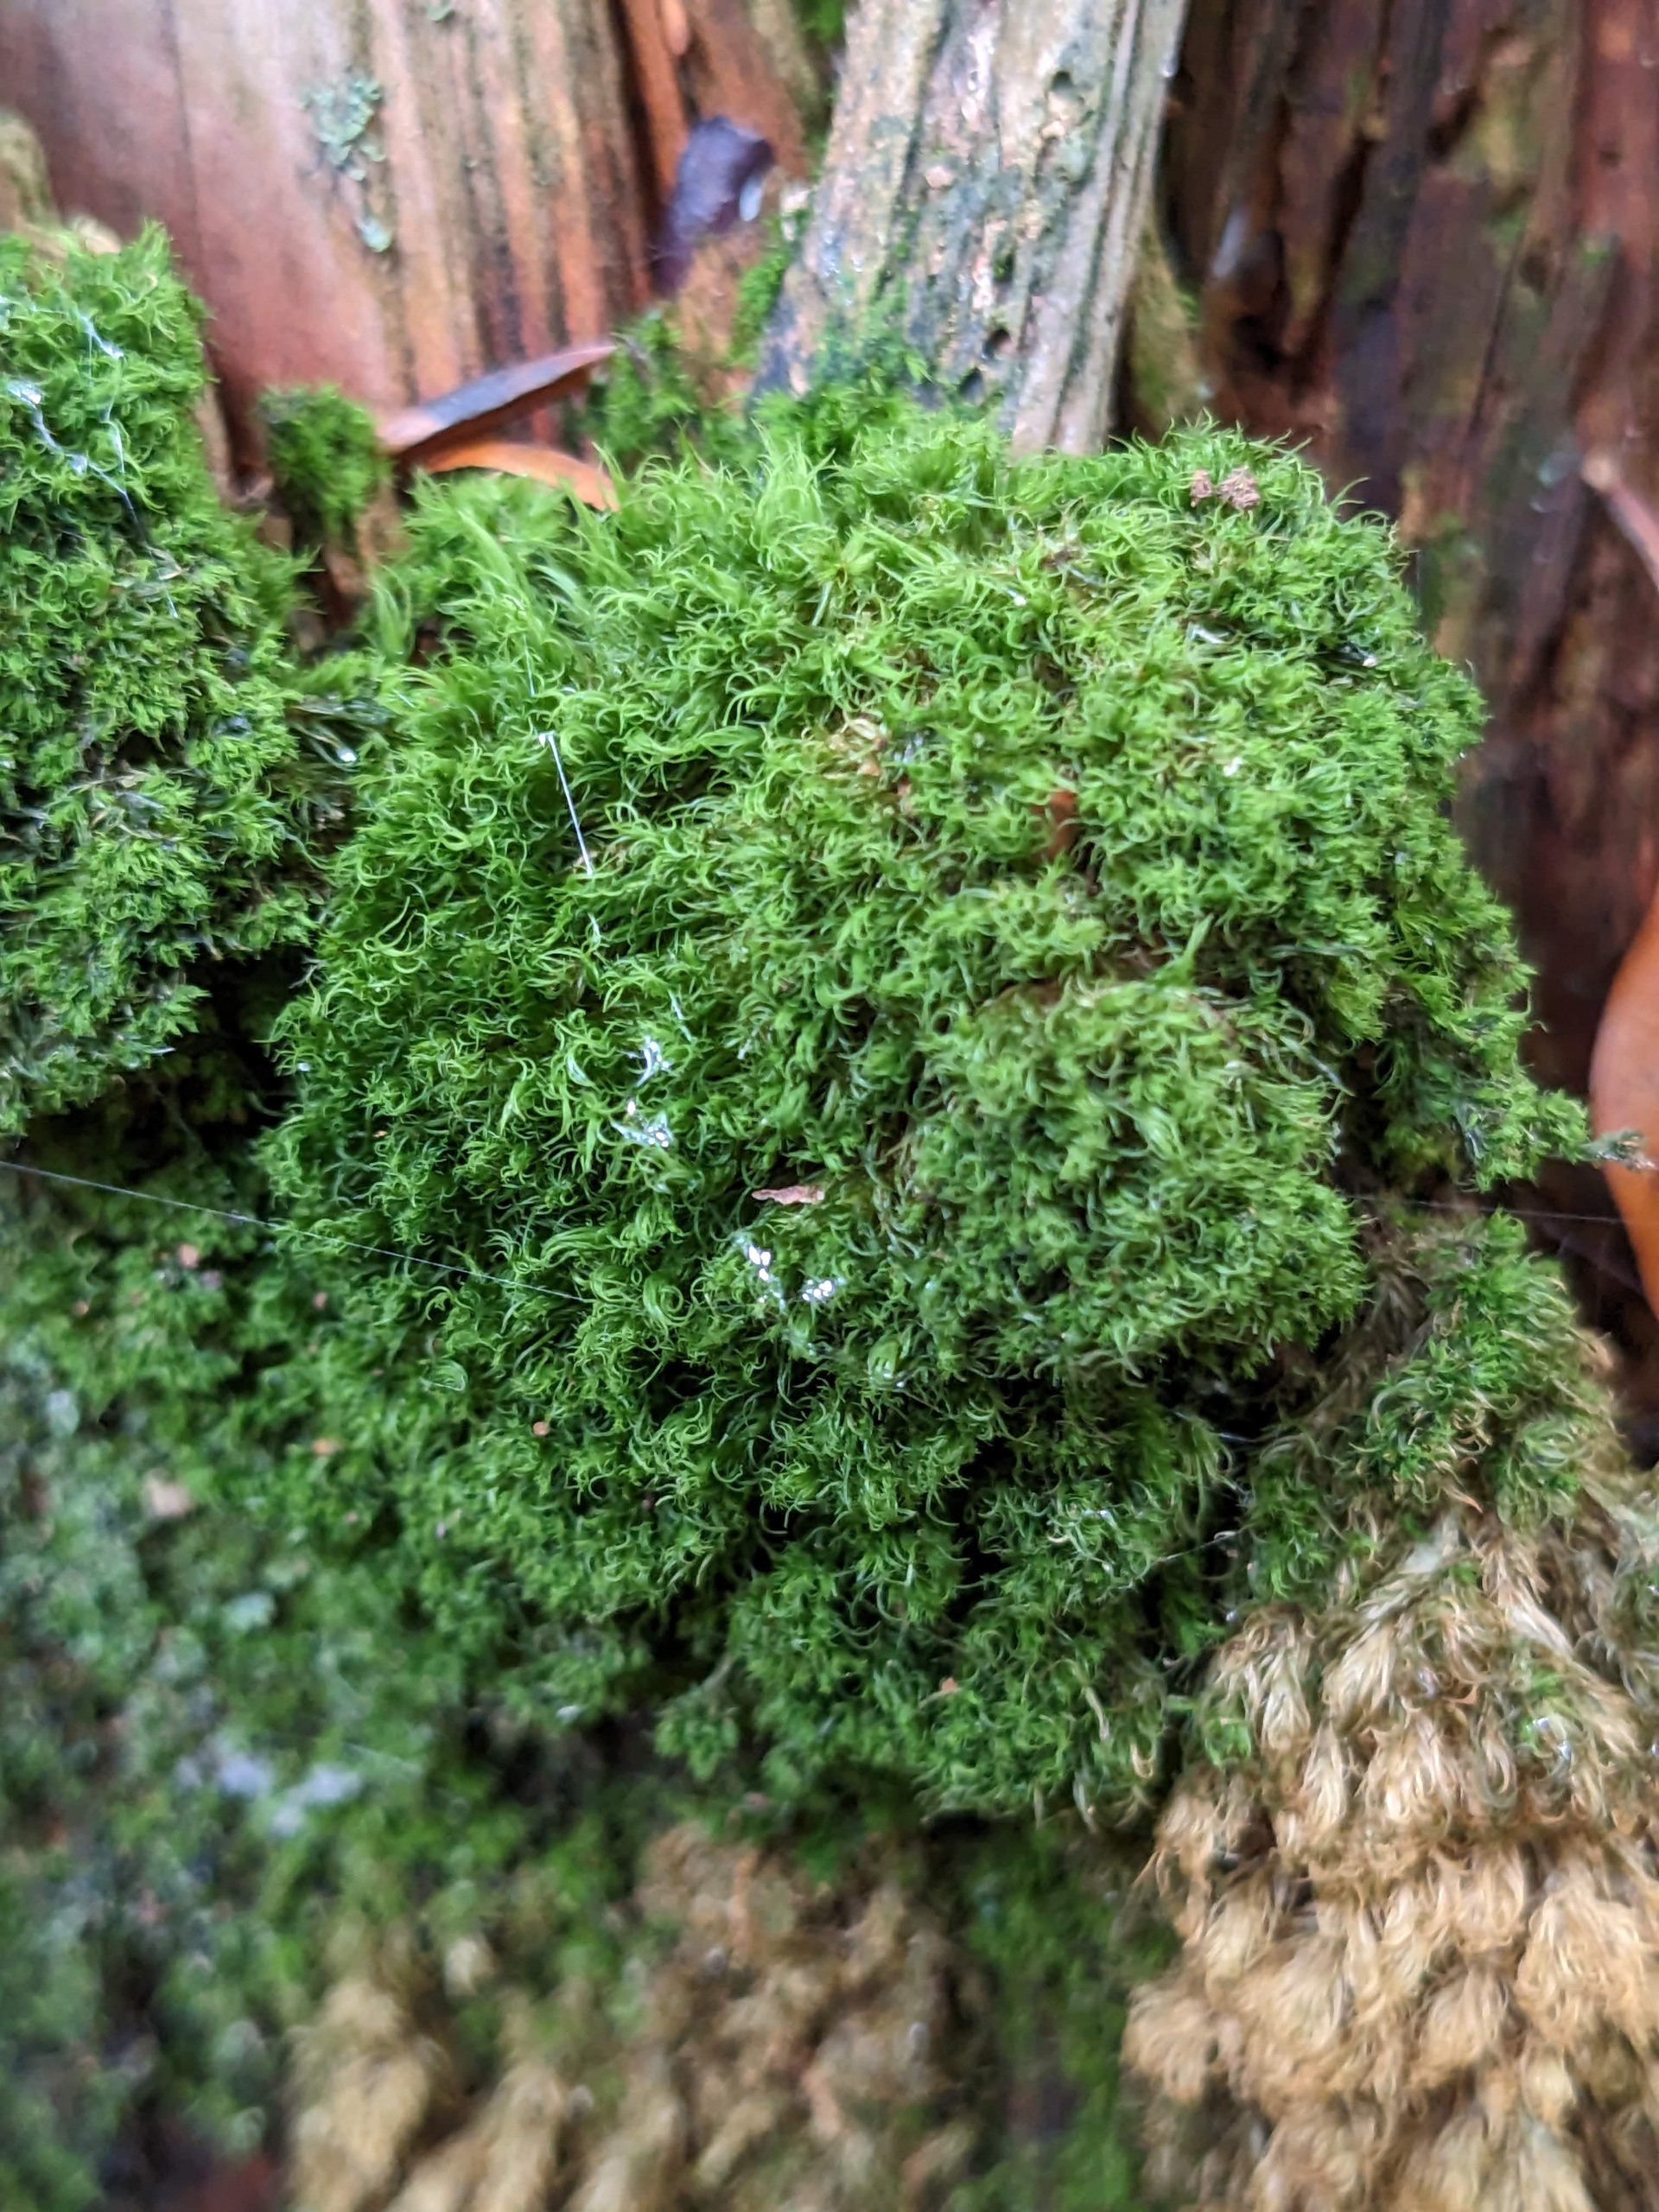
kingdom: Plantae
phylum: Bryophyta
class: Bryopsida
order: Dicranales
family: Dicranaceae
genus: Orthodicranum
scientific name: Orthodicranum montanum
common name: Tæt tyndvinge
